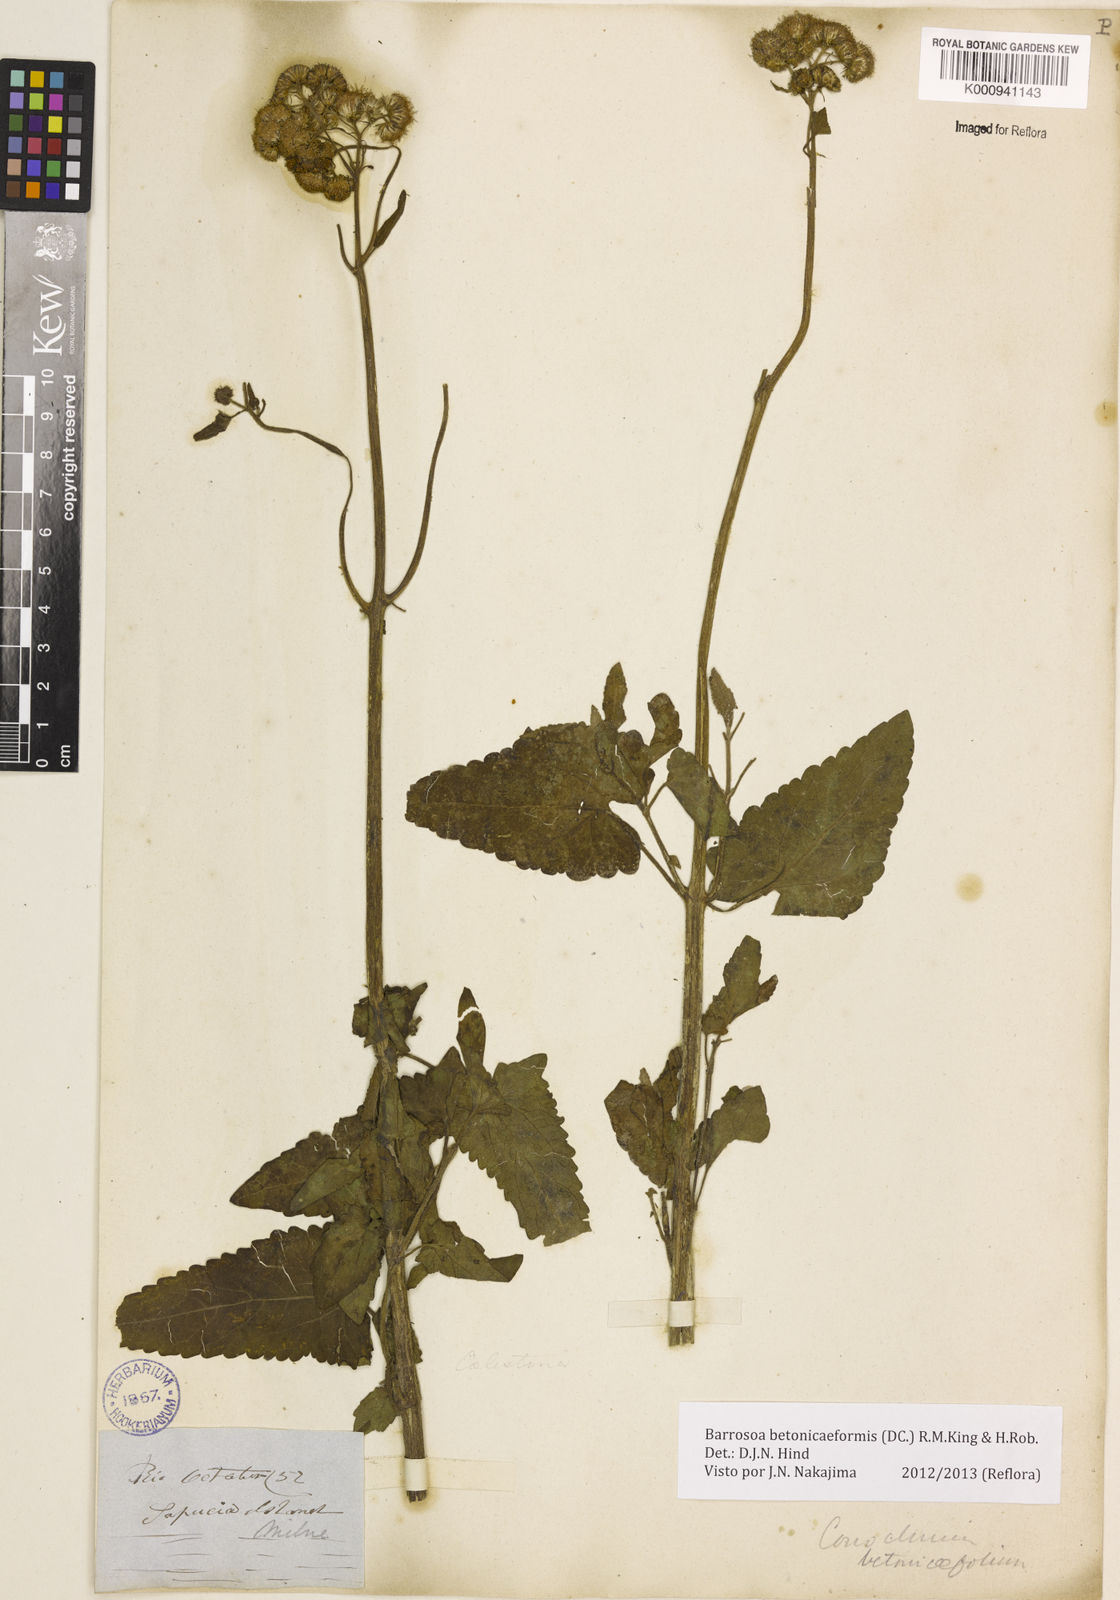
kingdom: Plantae
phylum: Tracheophyta
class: Magnoliopsida
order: Asterales
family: Asteraceae
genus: Barrosoa
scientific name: Barrosoa betoniciformis
